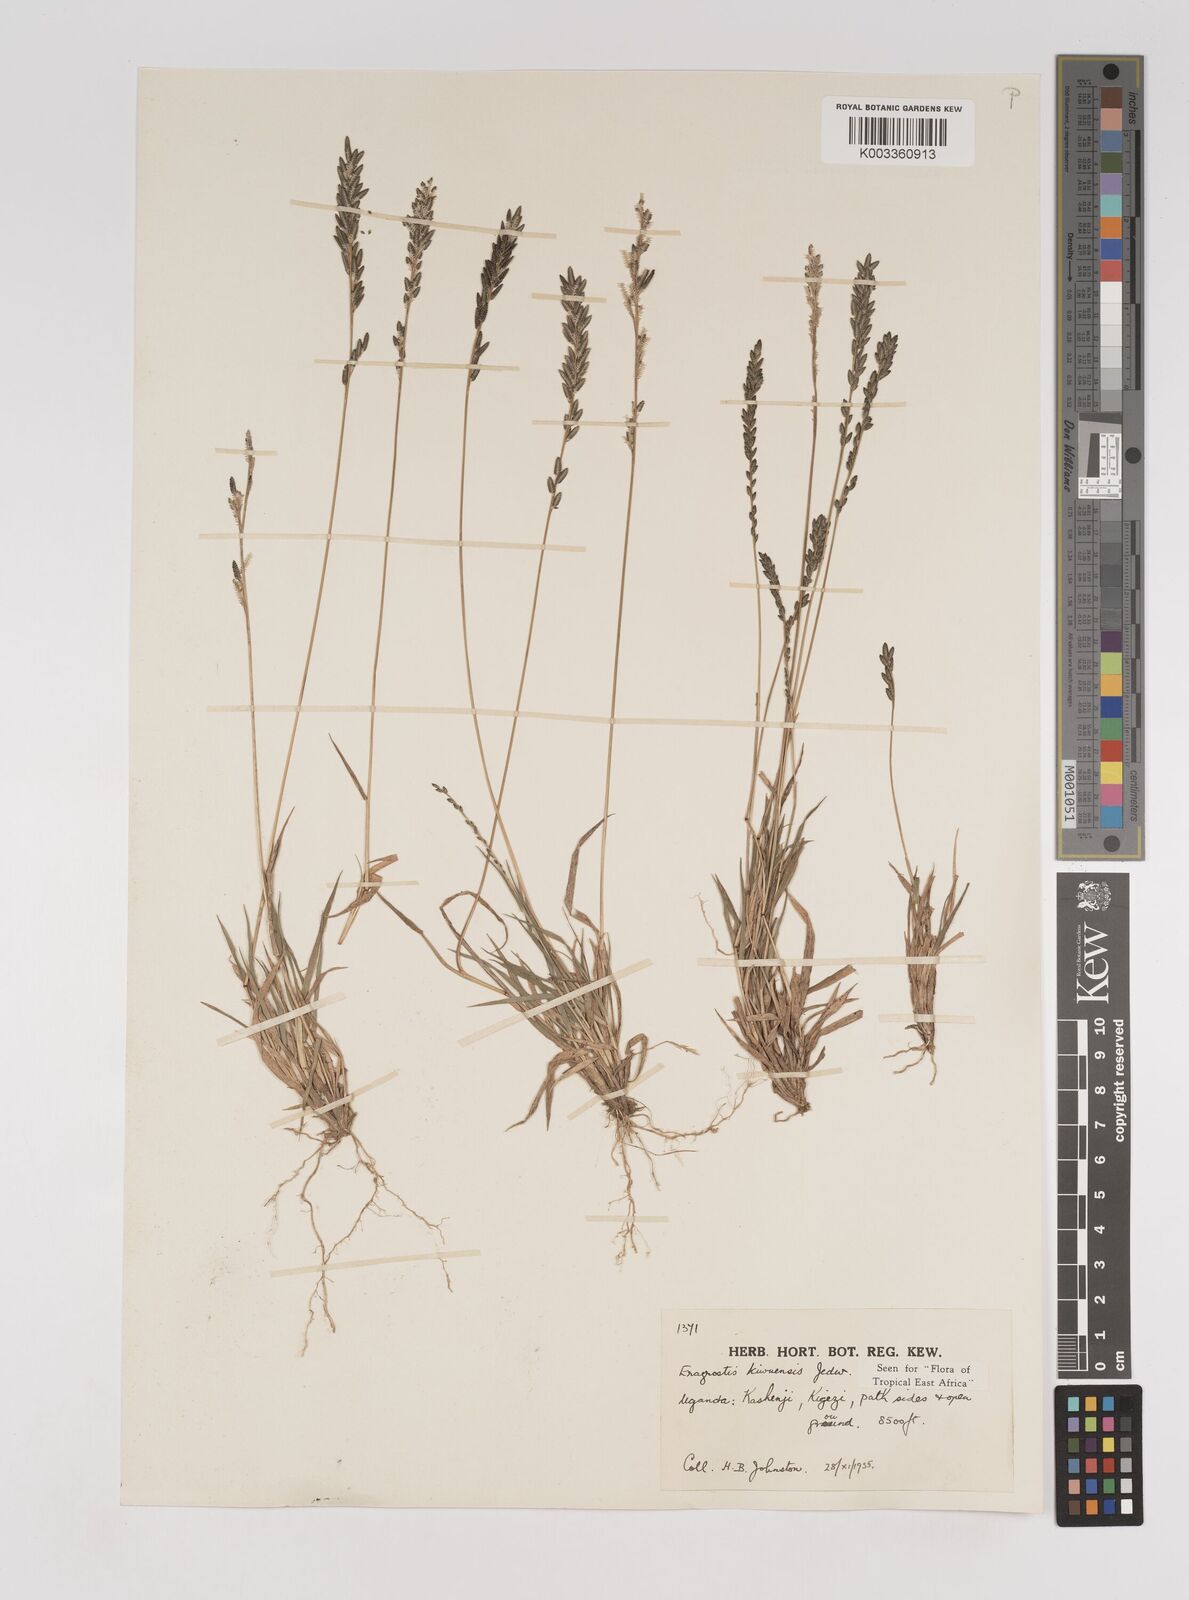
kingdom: Plantae
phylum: Tracheophyta
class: Liliopsida
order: Poales
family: Poaceae
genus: Eragrostis
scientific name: Eragrostis schweinfurthii
